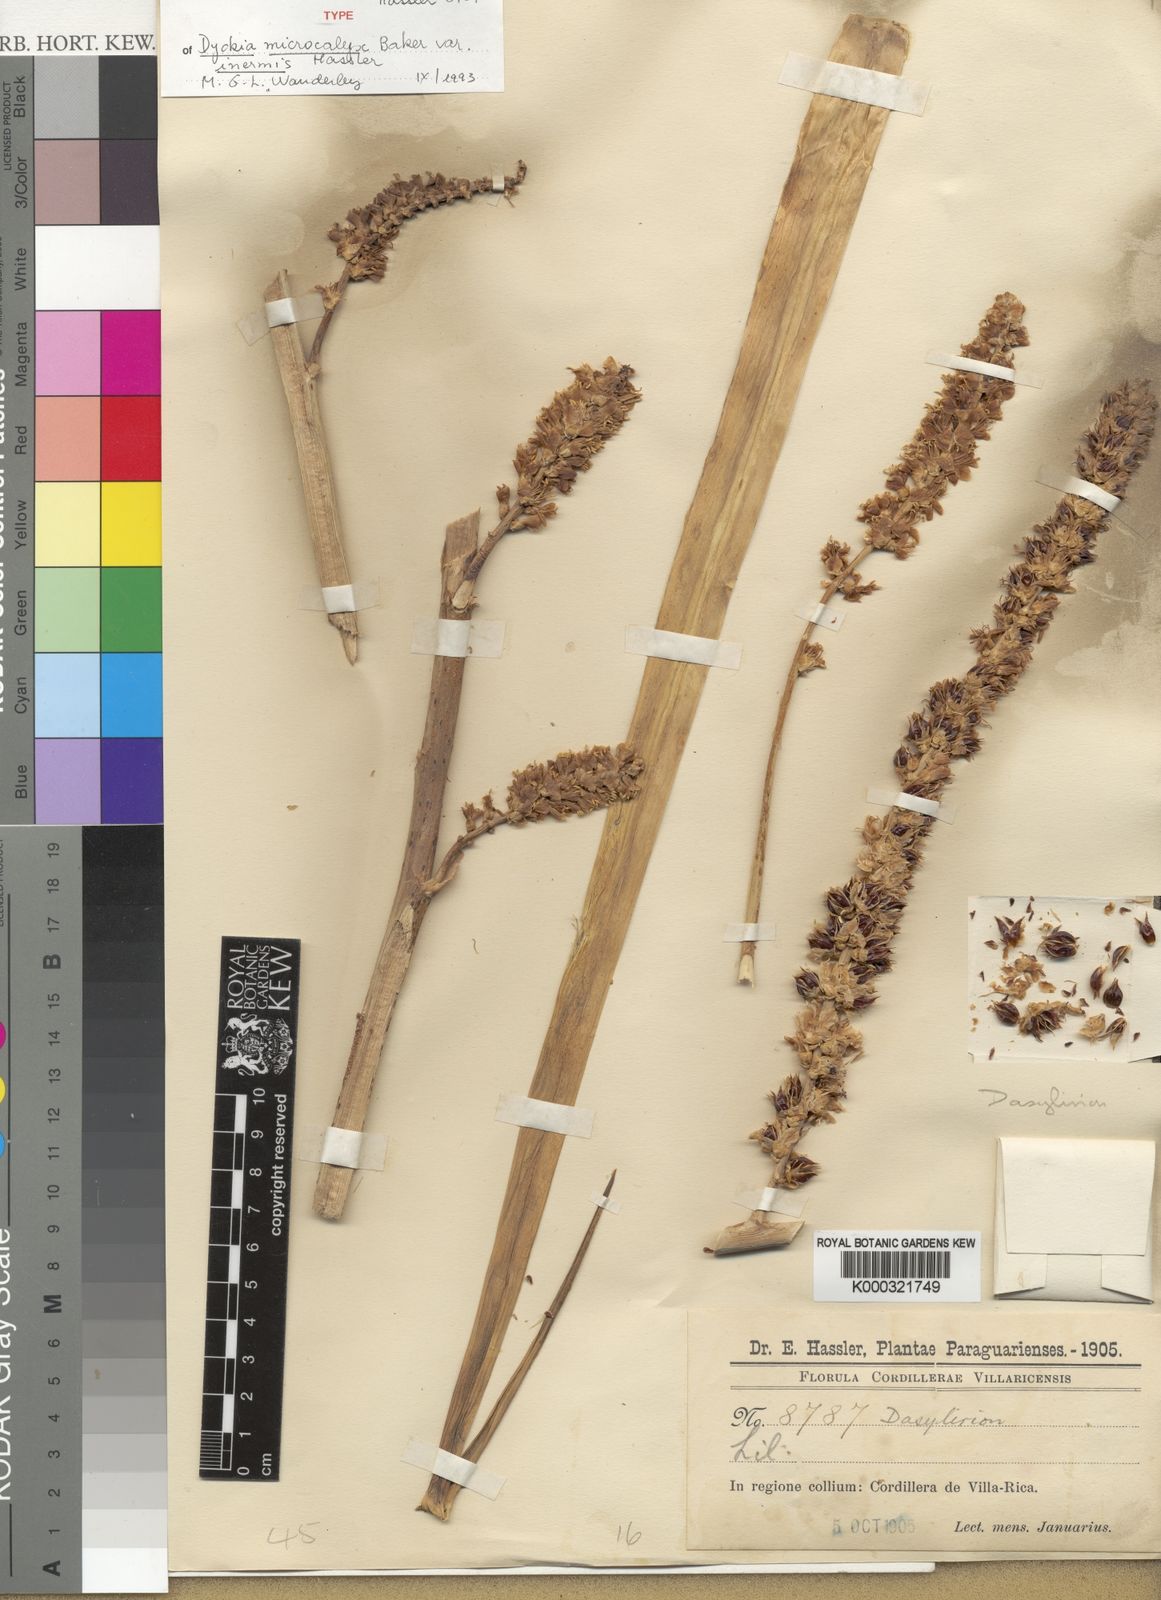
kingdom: Plantae
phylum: Tracheophyta
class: Liliopsida
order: Poales
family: Bromeliaceae
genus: Dyckia
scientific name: Dyckia microcalyx
